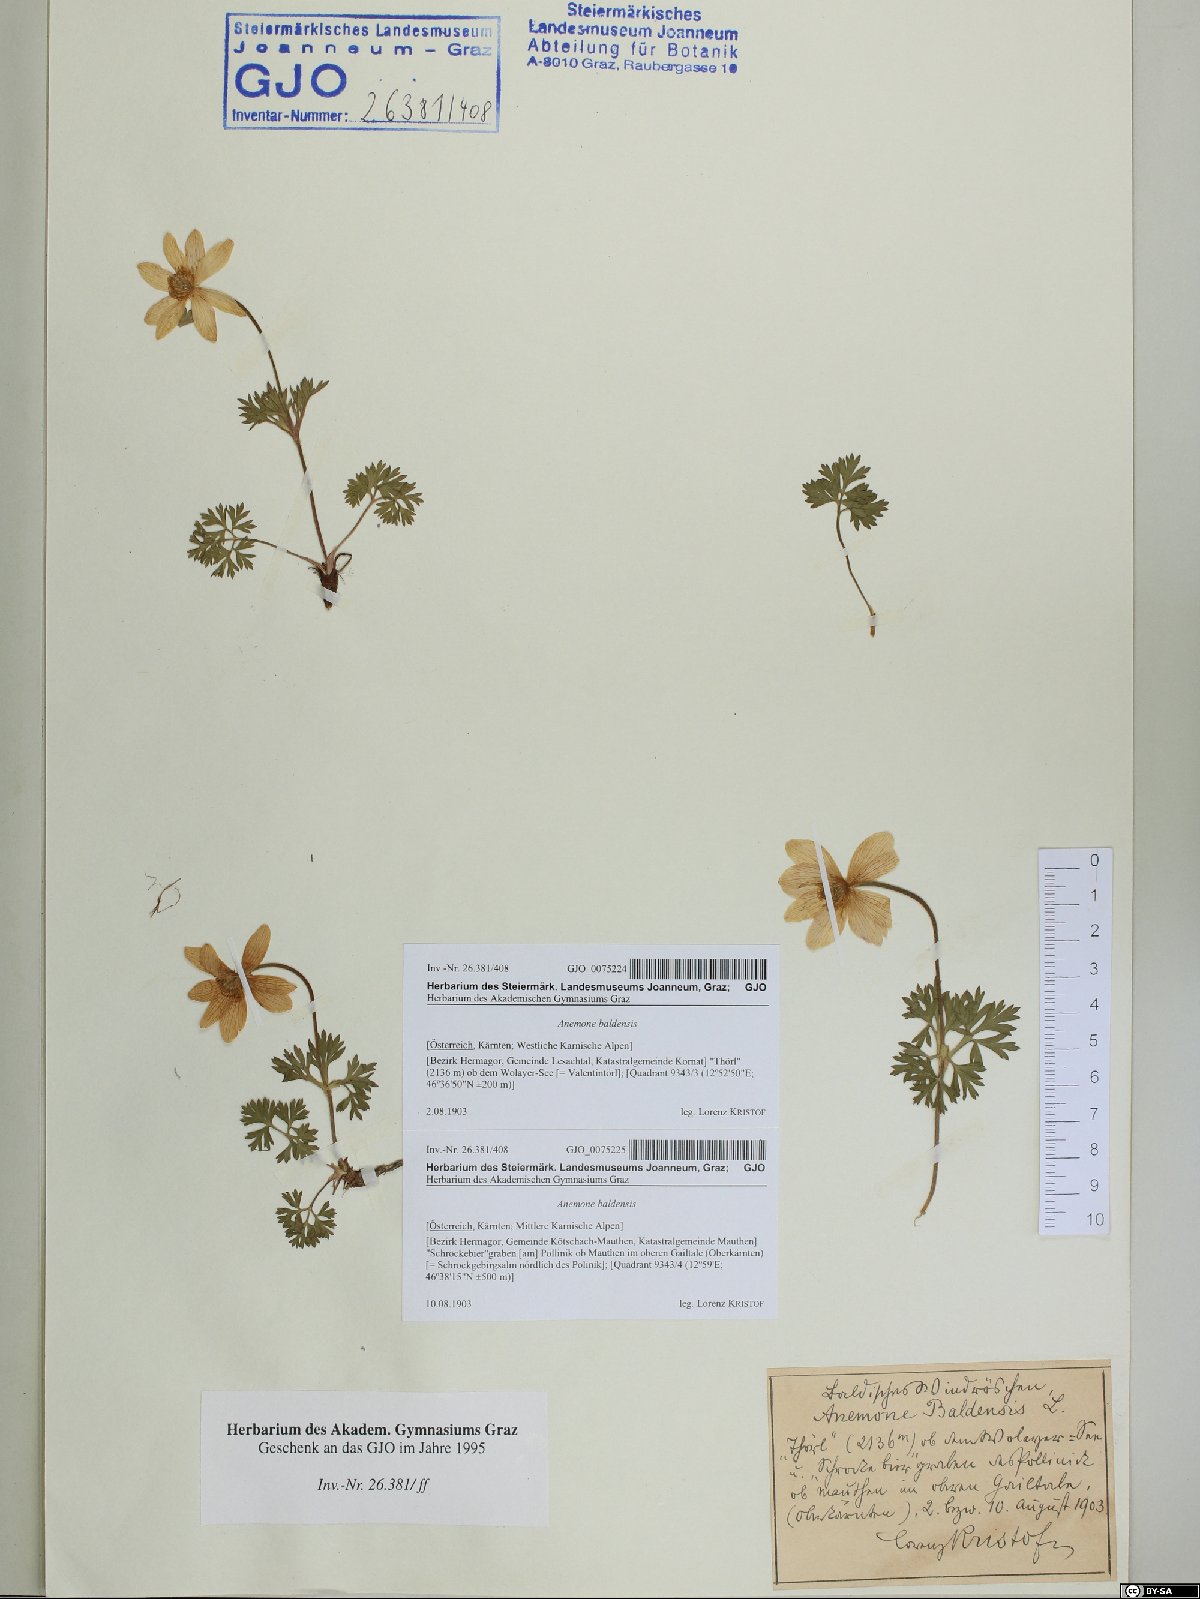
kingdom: Plantae
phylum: Tracheophyta
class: Magnoliopsida
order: Ranunculales
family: Ranunculaceae
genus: Anemone
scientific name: Anemone baldensis
